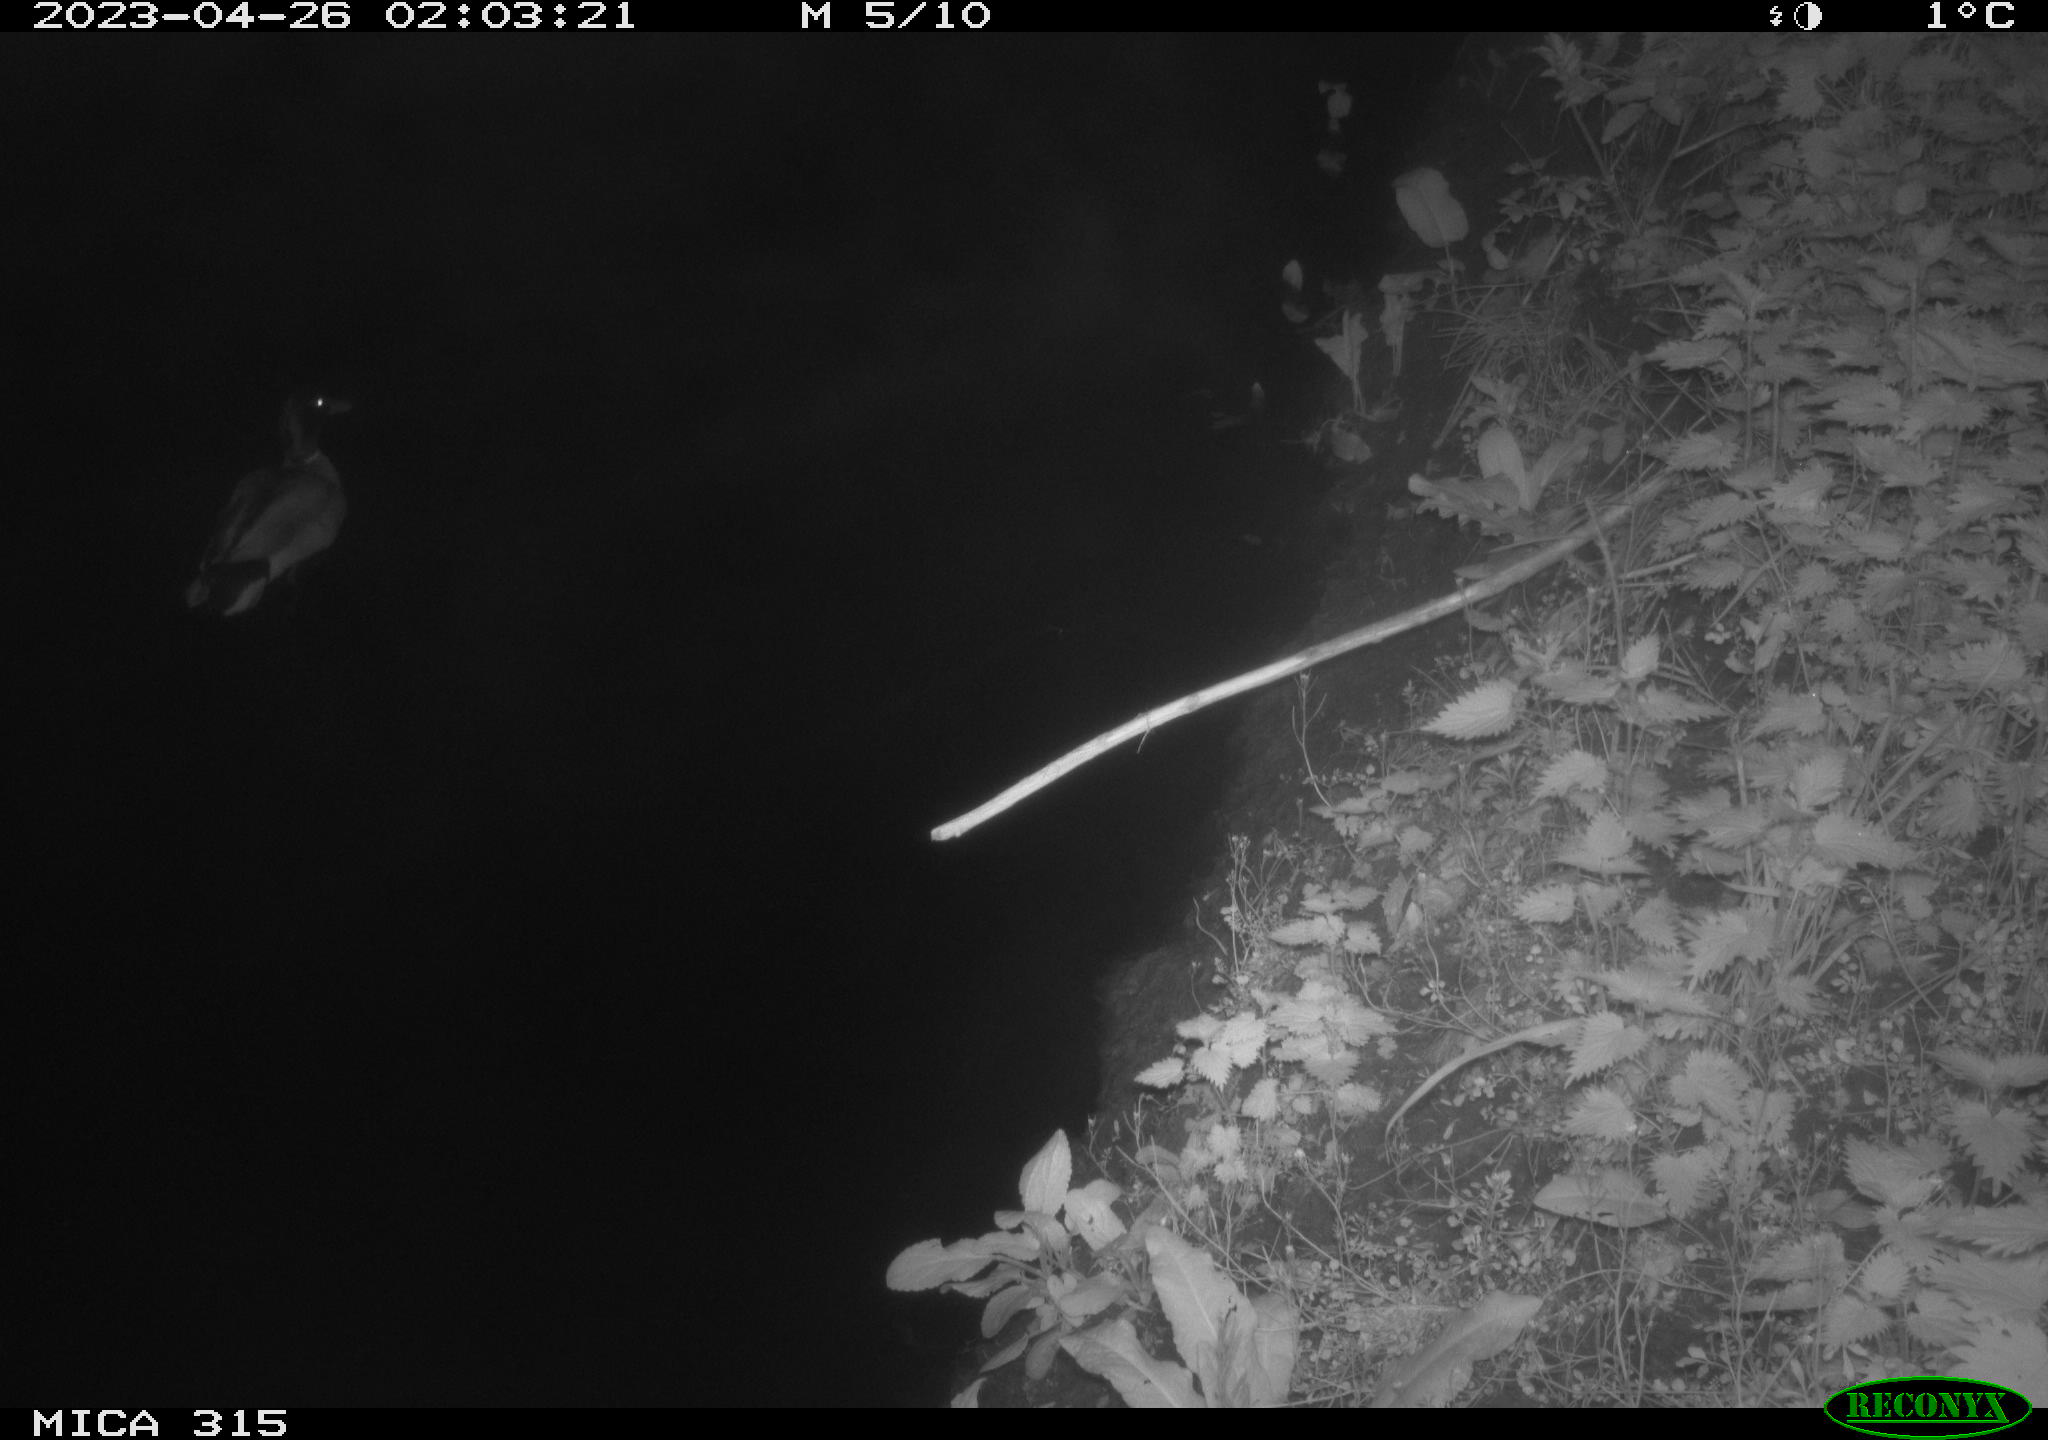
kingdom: Animalia
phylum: Chordata
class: Aves
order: Anseriformes
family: Anatidae
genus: Anas
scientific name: Anas
